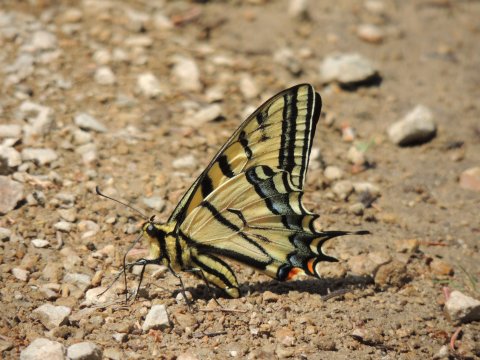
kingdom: Animalia
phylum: Arthropoda
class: Insecta
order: Lepidoptera
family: Papilionidae
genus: Papilio
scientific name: Papilio multicaudata
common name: Two-tailed Swallowtail
